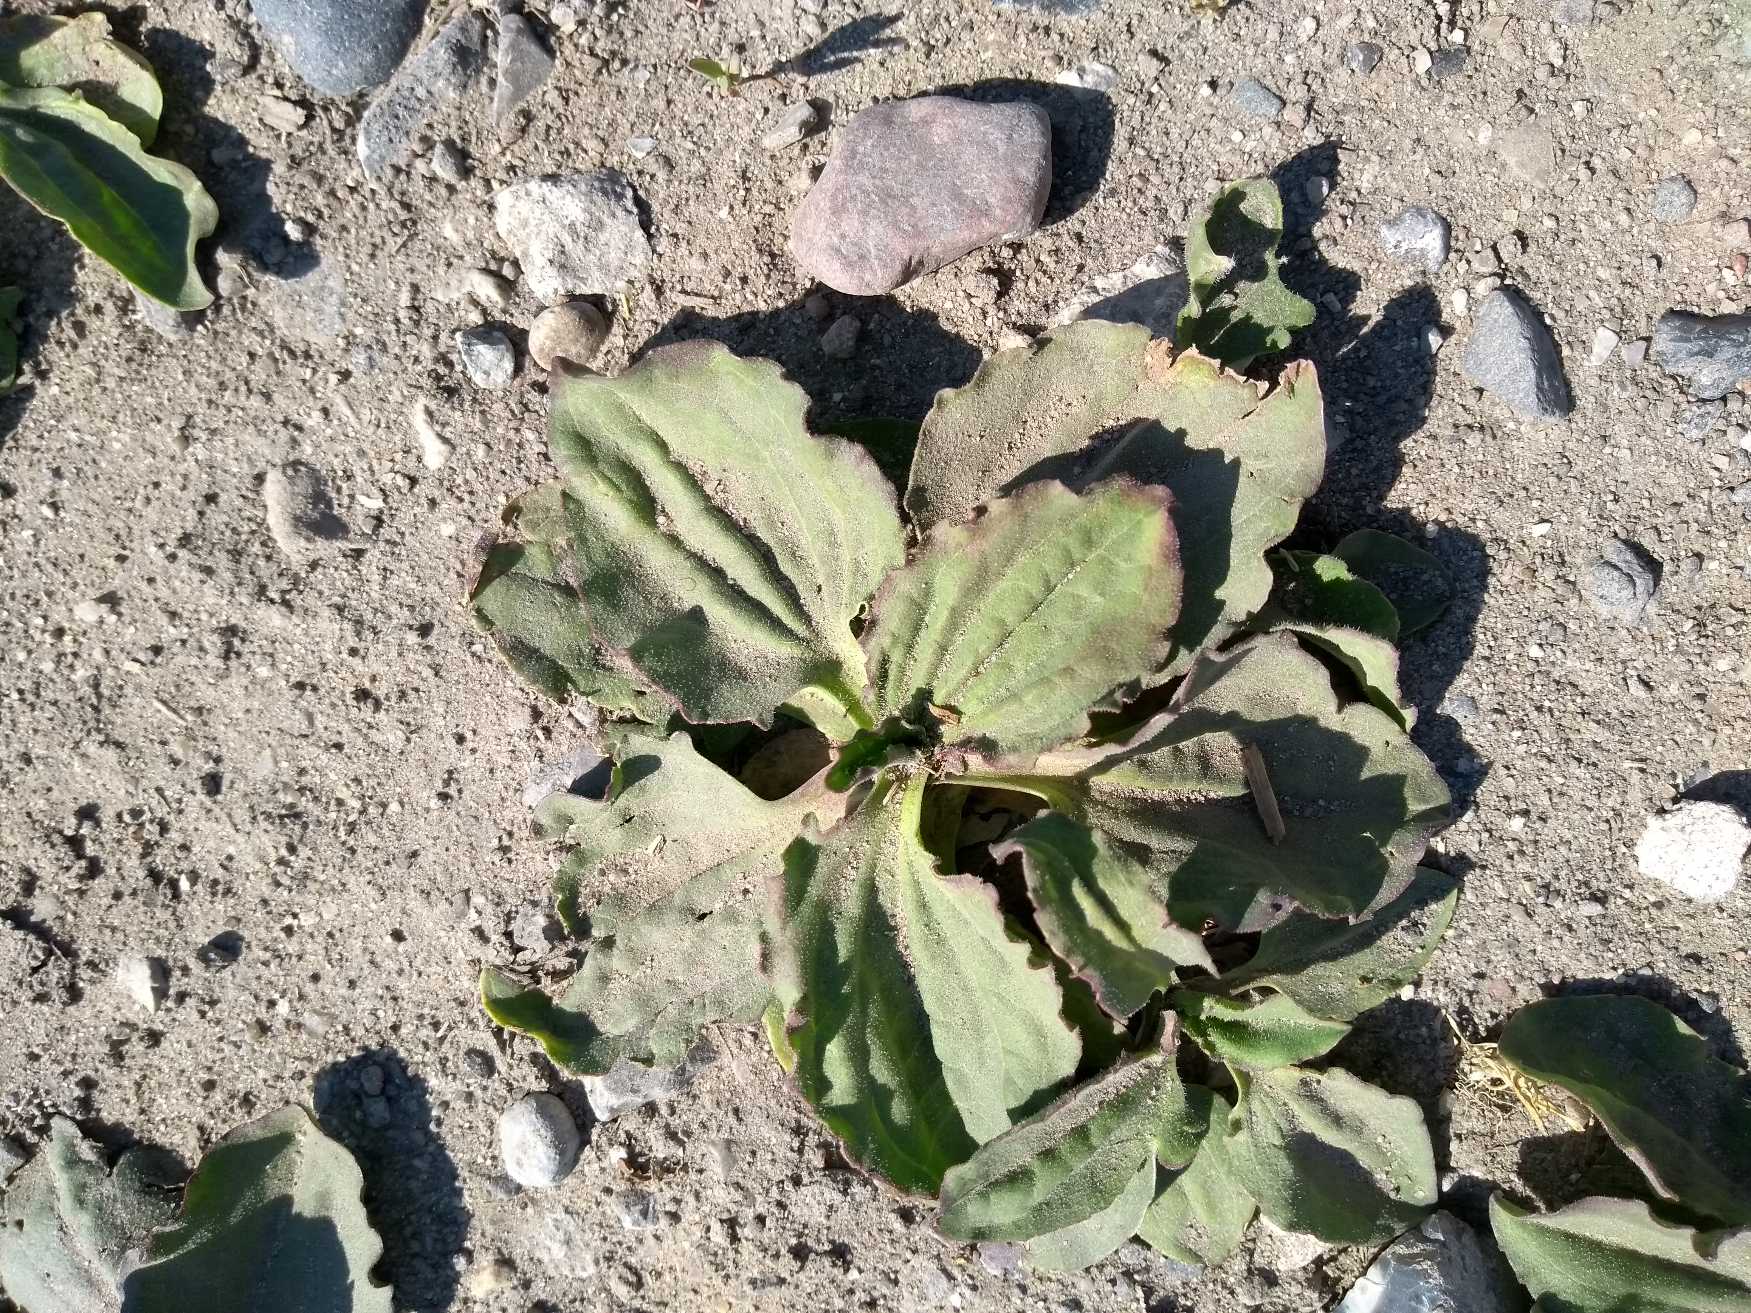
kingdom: Plantae
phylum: Tracheophyta
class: Magnoliopsida
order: Lamiales
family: Plantaginaceae
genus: Plantago
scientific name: Plantago major
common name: Glat vejbred
